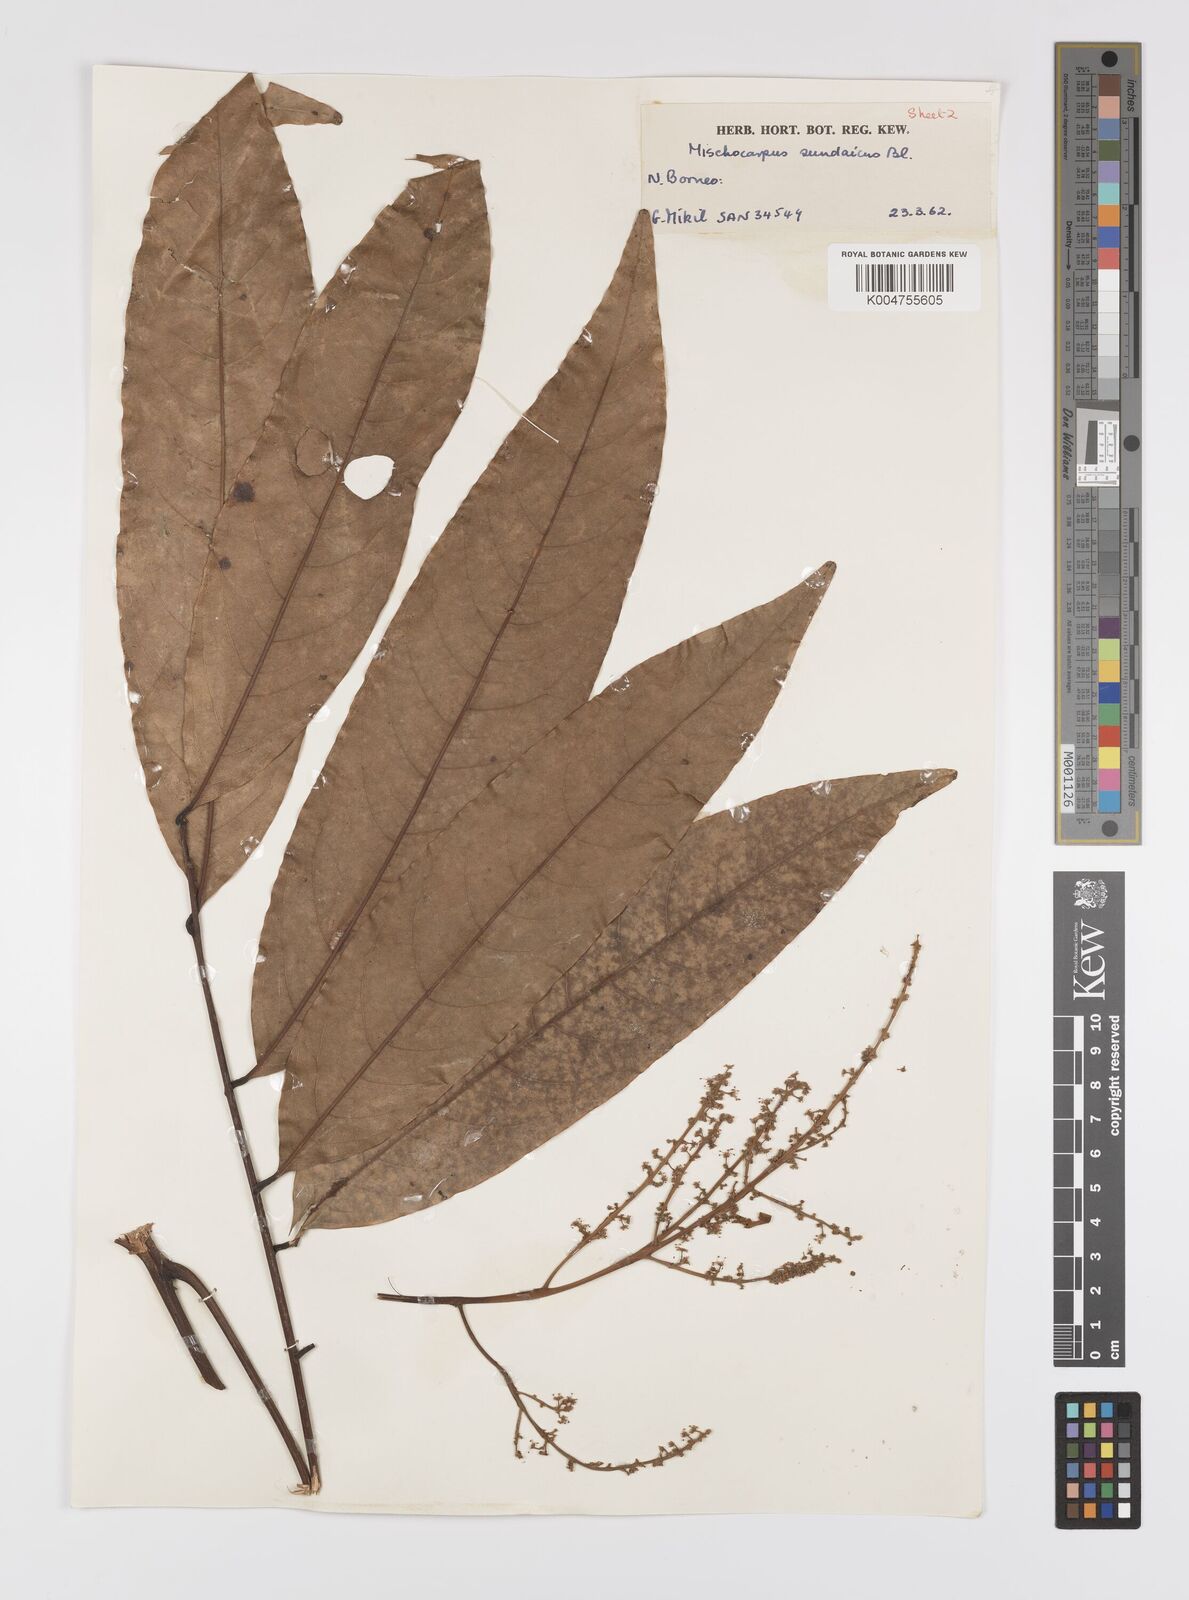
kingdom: Plantae
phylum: Tracheophyta
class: Magnoliopsida
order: Sapindales
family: Sapindaceae
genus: Mischocarpus
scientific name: Mischocarpus pentapetalus
